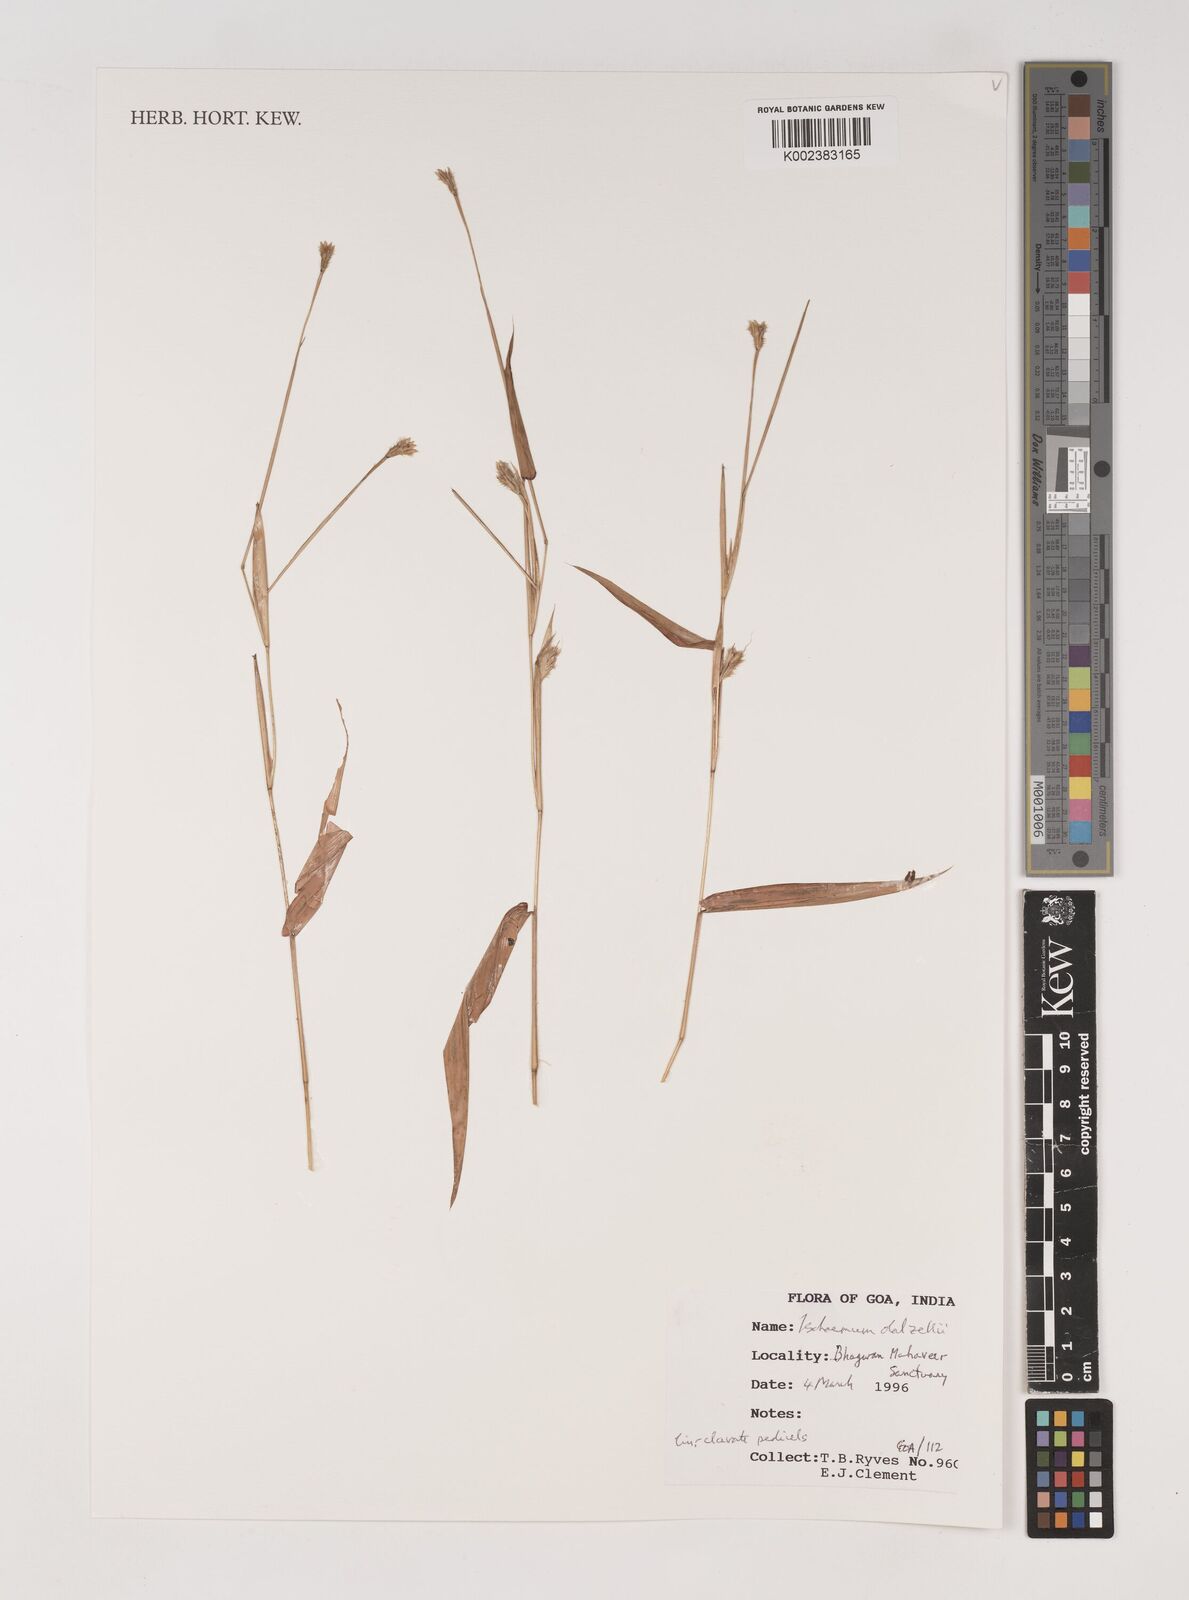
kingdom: Plantae
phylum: Tracheophyta
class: Liliopsida
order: Poales
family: Poaceae
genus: Ischaemum
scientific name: Ischaemum dalzellii
